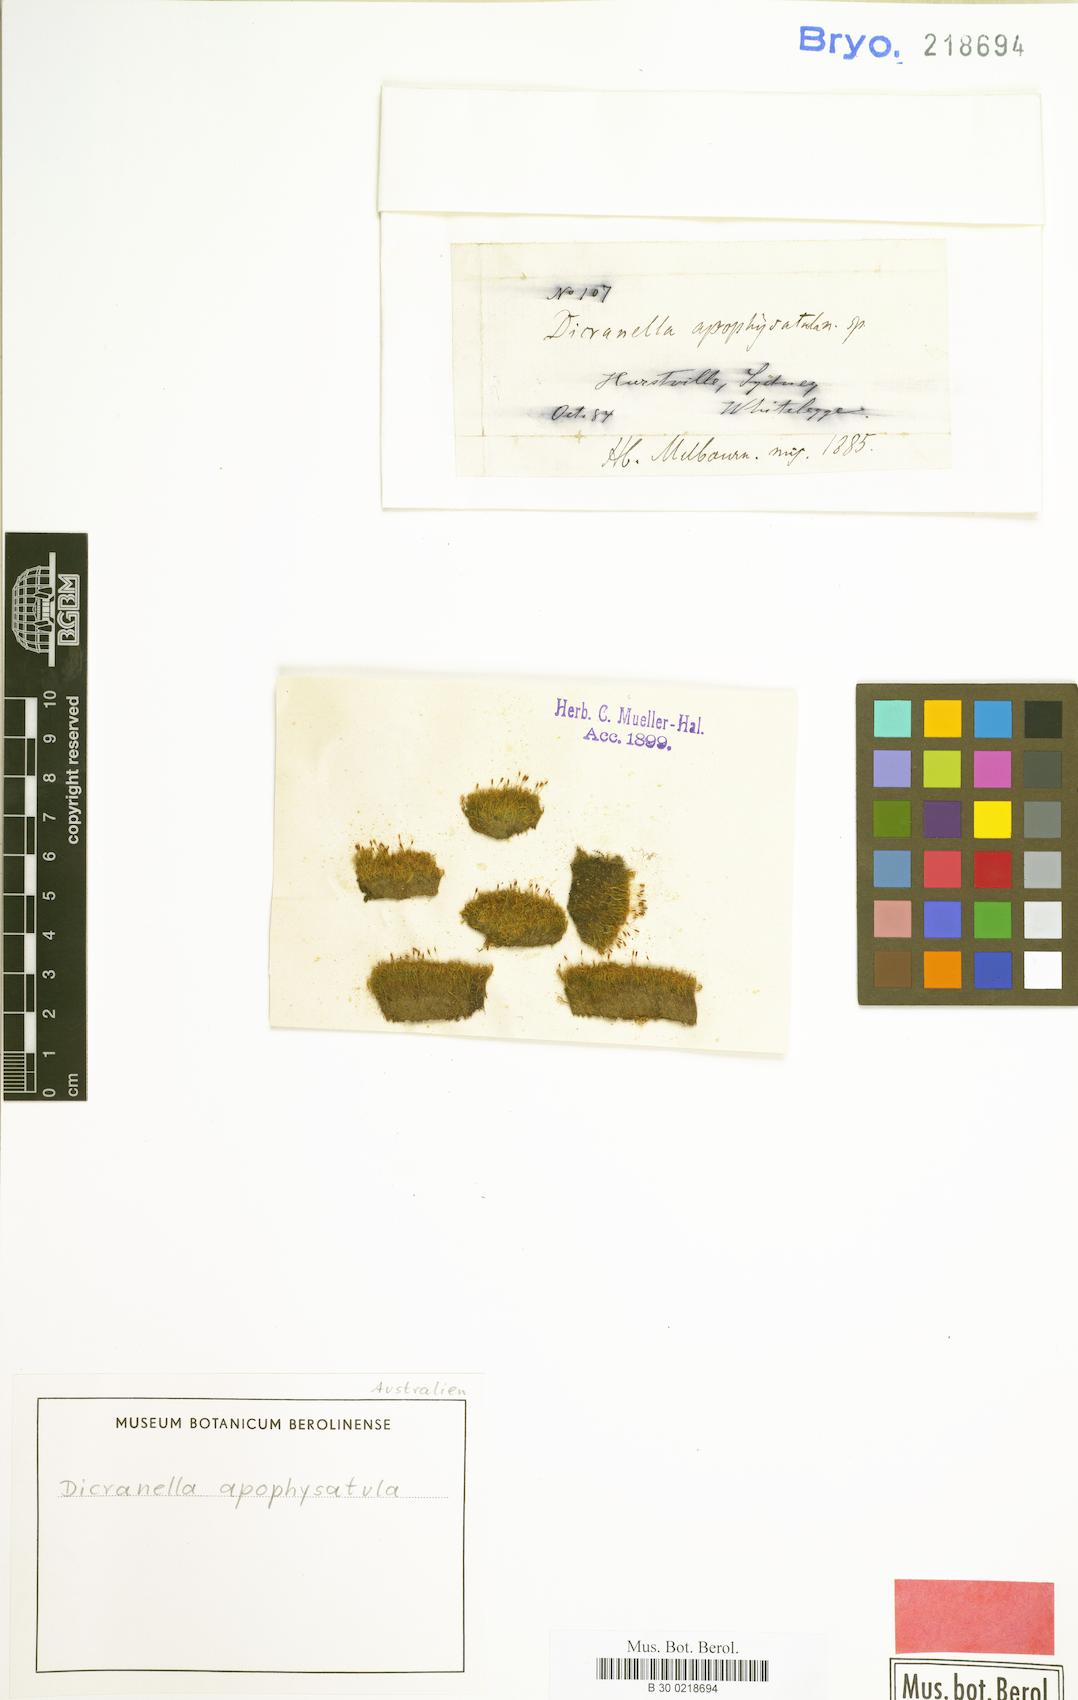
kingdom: Plantae
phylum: Bryophyta
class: Bryopsida
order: Dicranales
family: Dicranellaceae
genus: Dicranella
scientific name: Dicranella apophysatula
